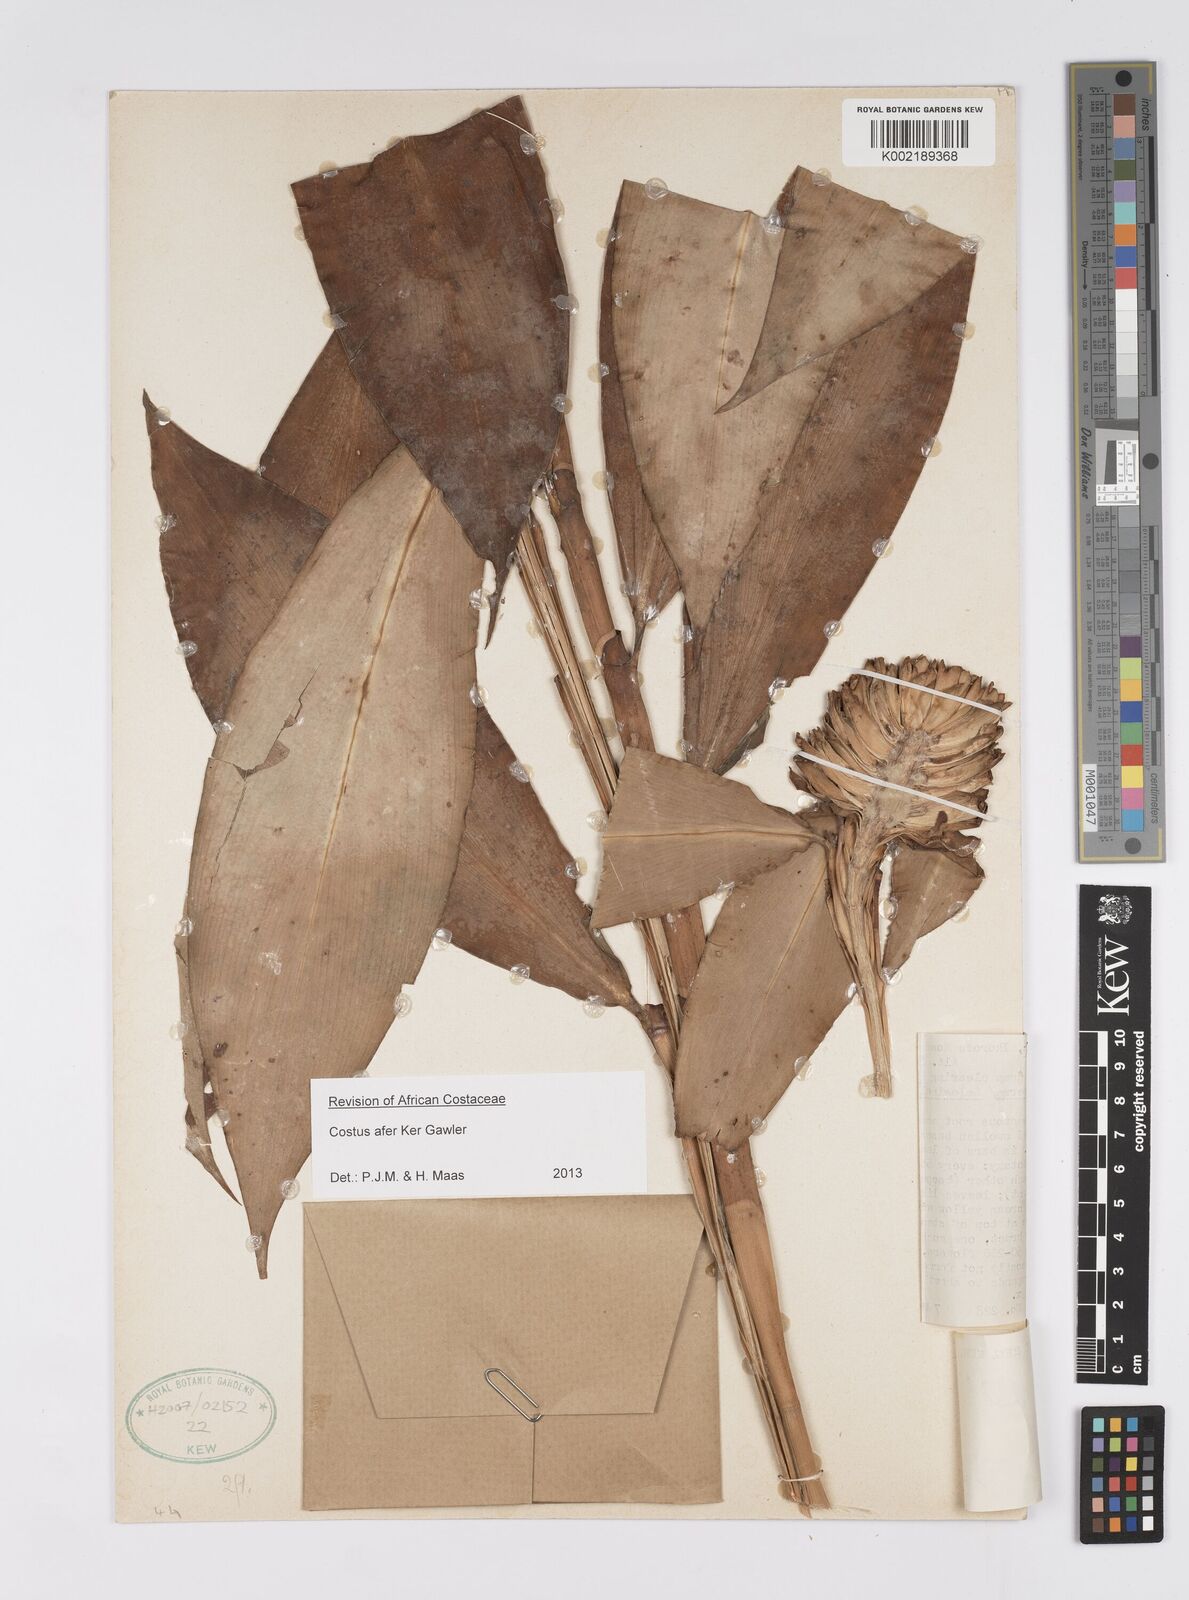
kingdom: Plantae
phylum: Tracheophyta
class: Liliopsida
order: Zingiberales
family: Costaceae
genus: Costus
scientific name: Costus afer
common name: Spiral-ginger
